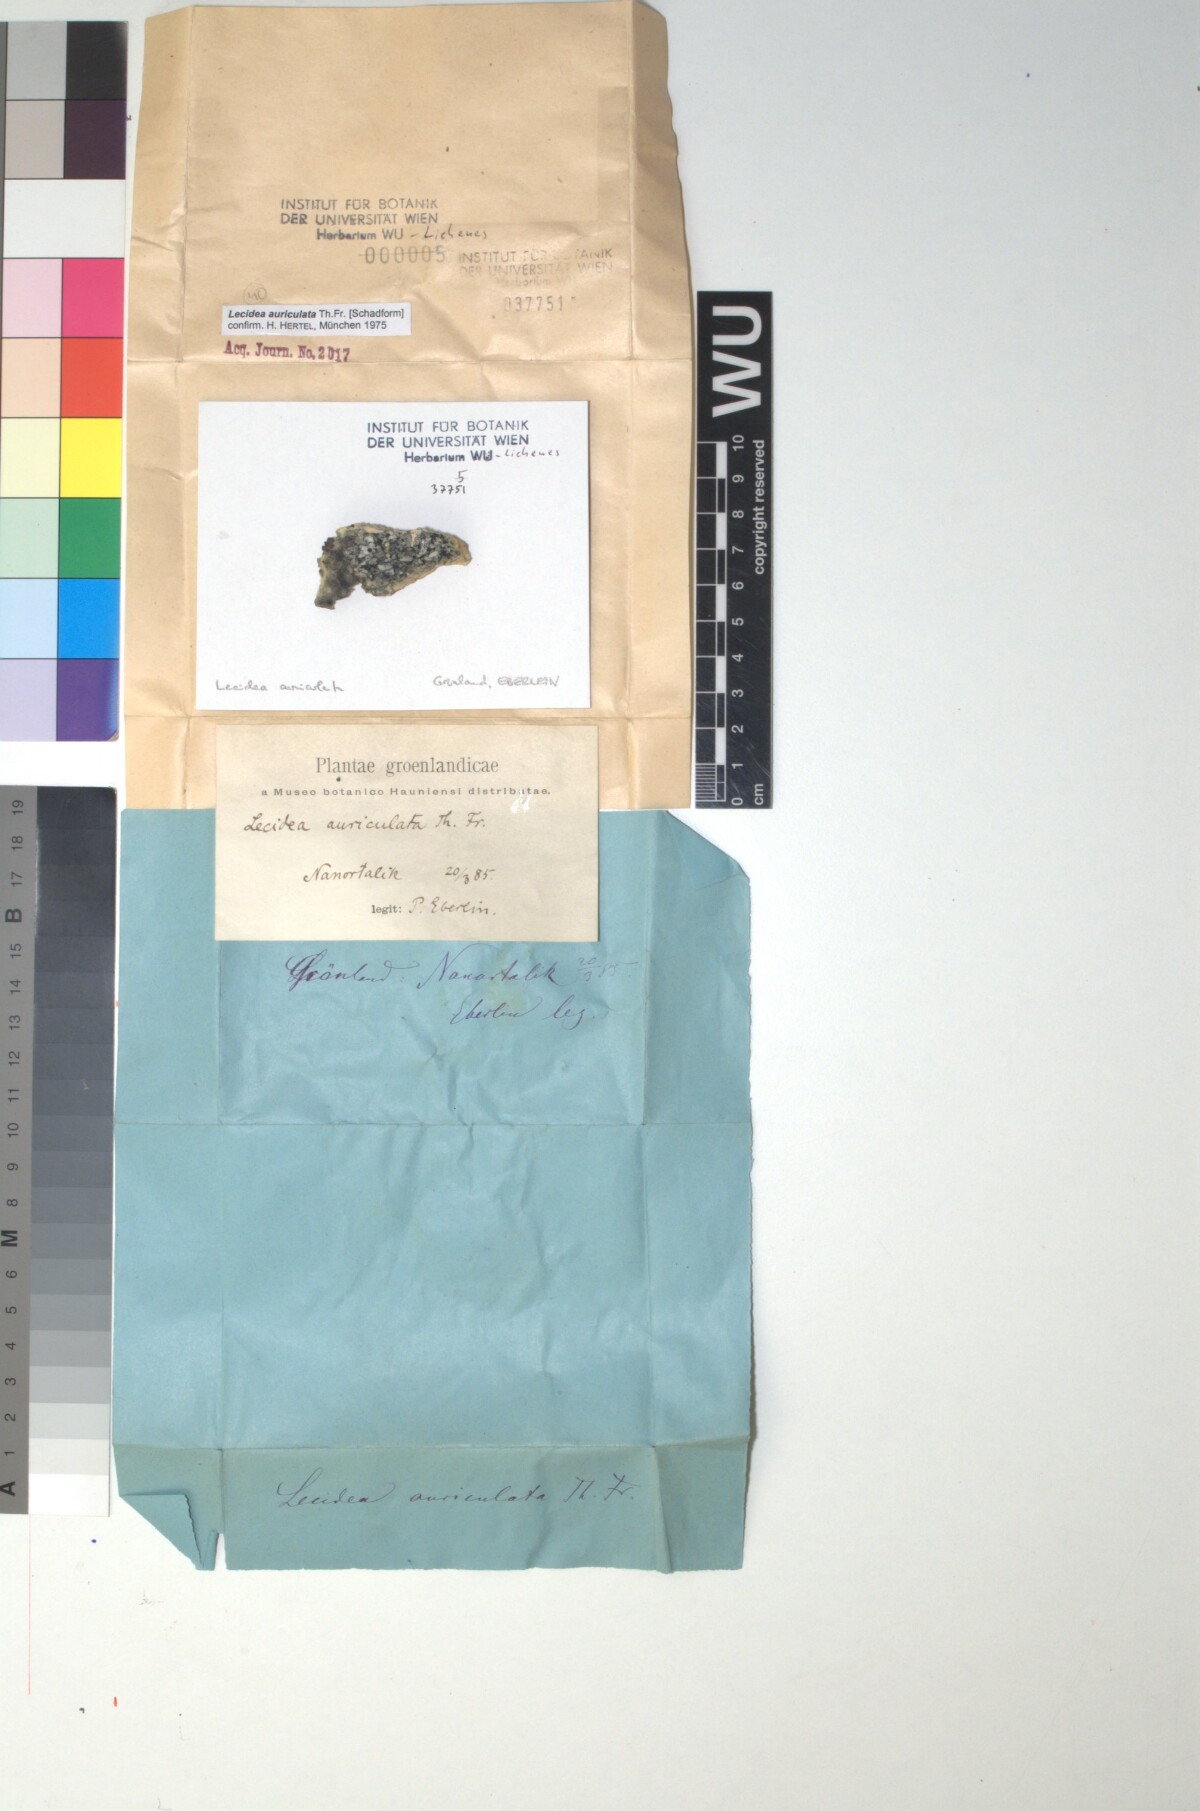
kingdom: Fungi
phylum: Ascomycota
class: Lecanoromycetes
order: Lecideales
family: Lecideaceae
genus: Lecidea
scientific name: Lecidea auriculata
